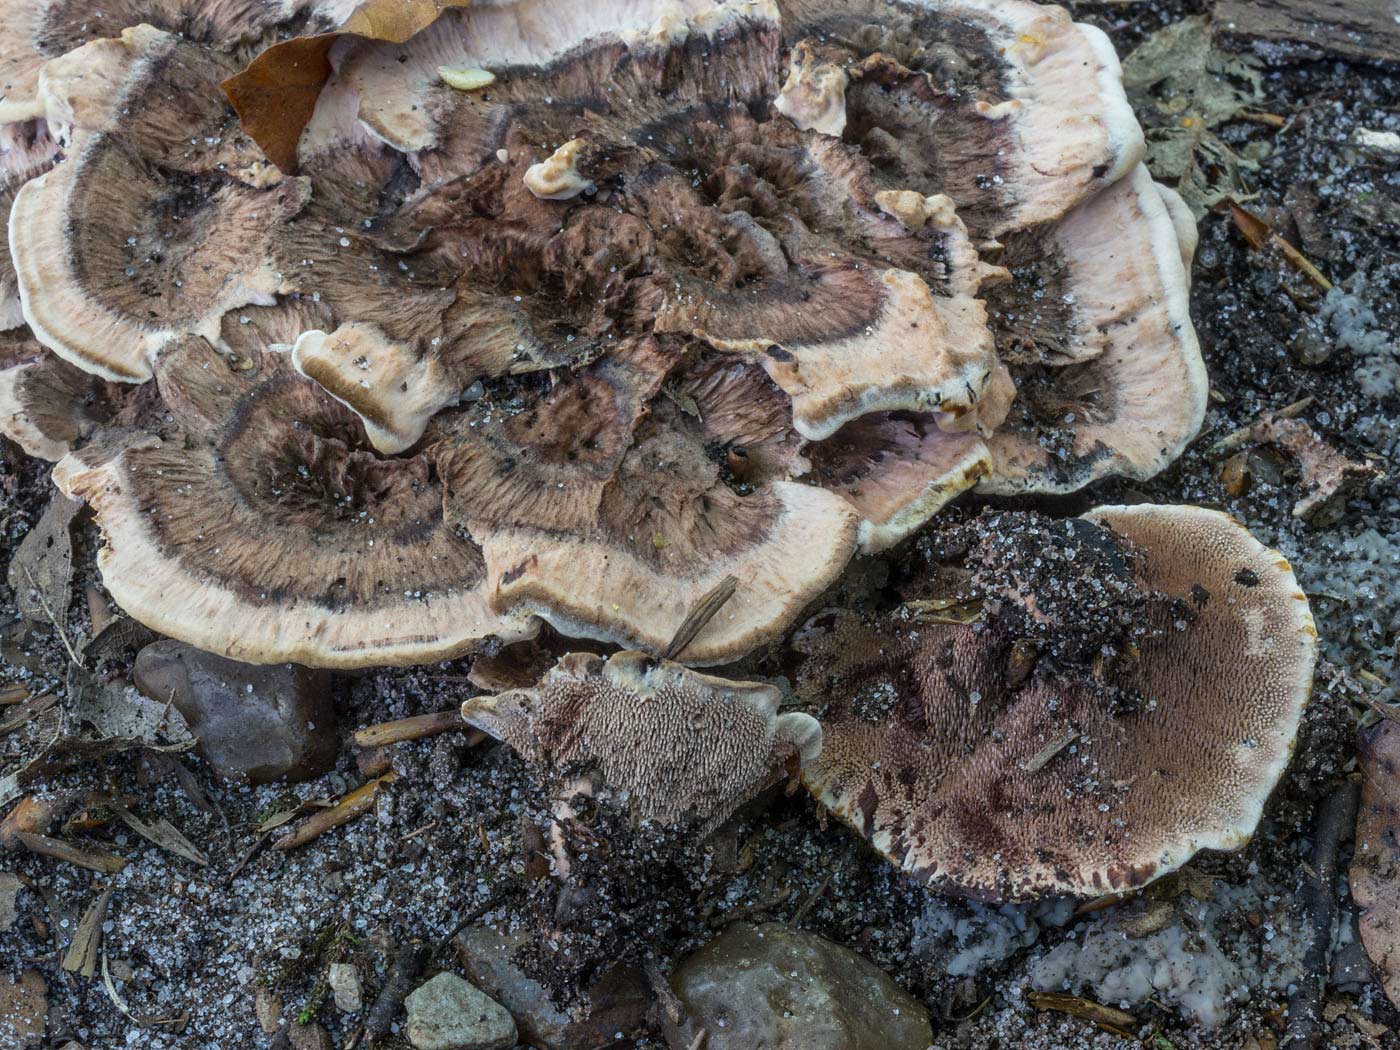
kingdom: Fungi
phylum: Basidiomycota
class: Agaricomycetes
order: Thelephorales
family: Bankeraceae
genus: Hydnellum
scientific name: Hydnellum concrescens
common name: Zoned tooth
